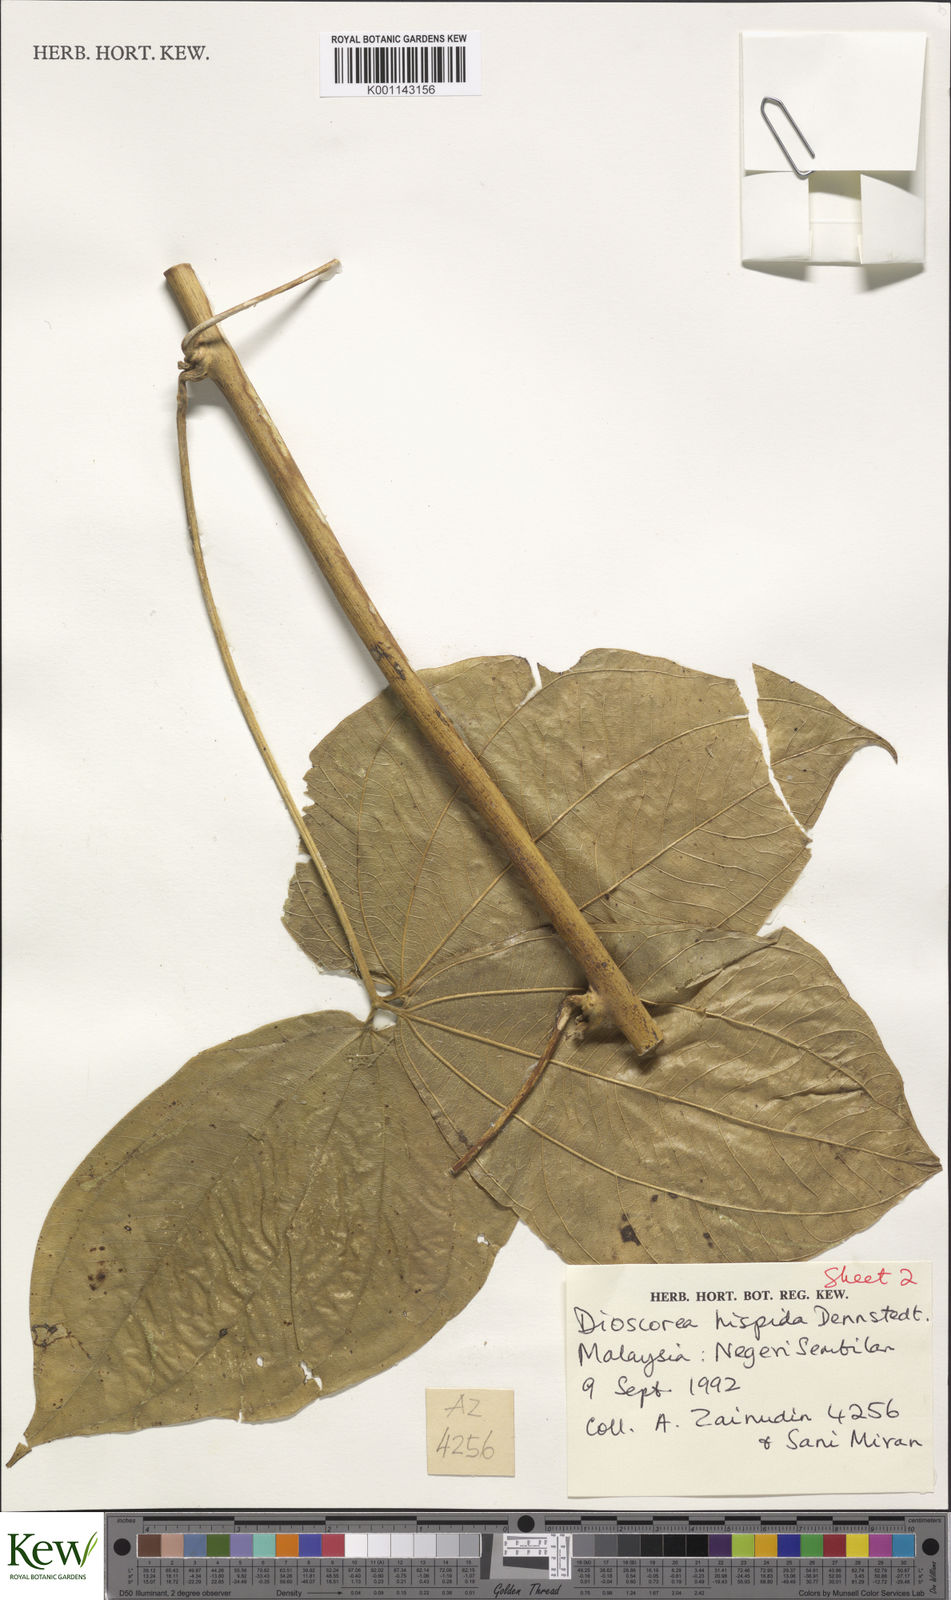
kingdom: Plantae
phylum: Tracheophyta
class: Liliopsida
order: Dioscoreales
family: Dioscoreaceae
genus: Dioscorea
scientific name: Dioscorea hispida
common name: Asiatic bitter yam
